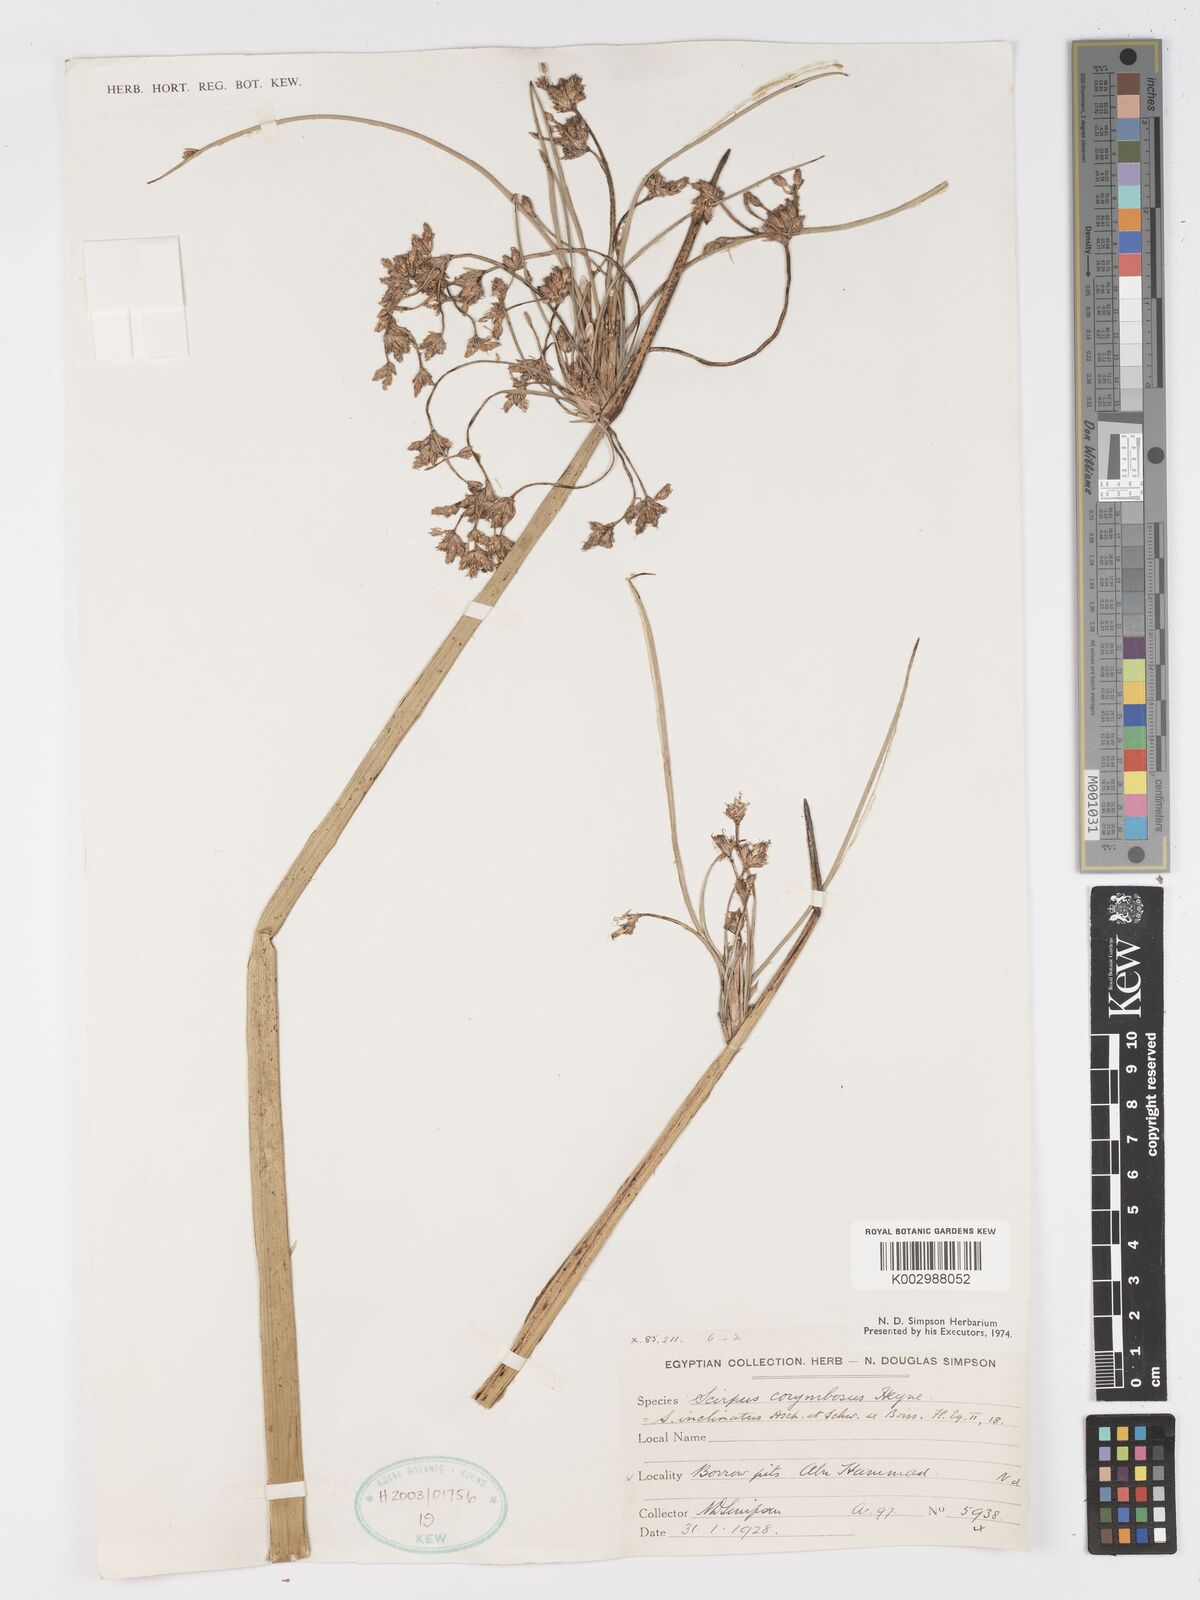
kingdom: Plantae
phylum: Tracheophyta
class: Liliopsida
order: Poales
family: Cyperaceae
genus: Schoenoplectiella
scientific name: Schoenoplectiella corymbosa
